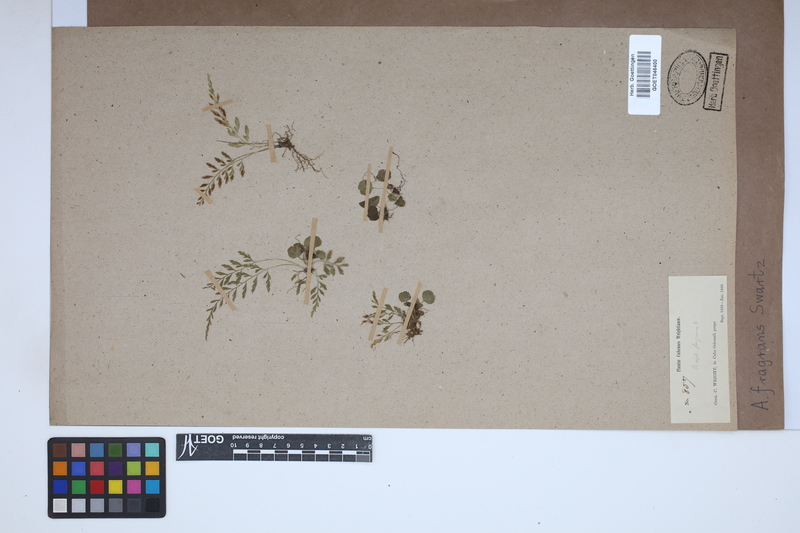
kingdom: Plantae
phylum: Tracheophyta
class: Polypodiopsida
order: Polypodiales
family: Aspleniaceae
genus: Asplenium
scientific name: Asplenium fragrans
